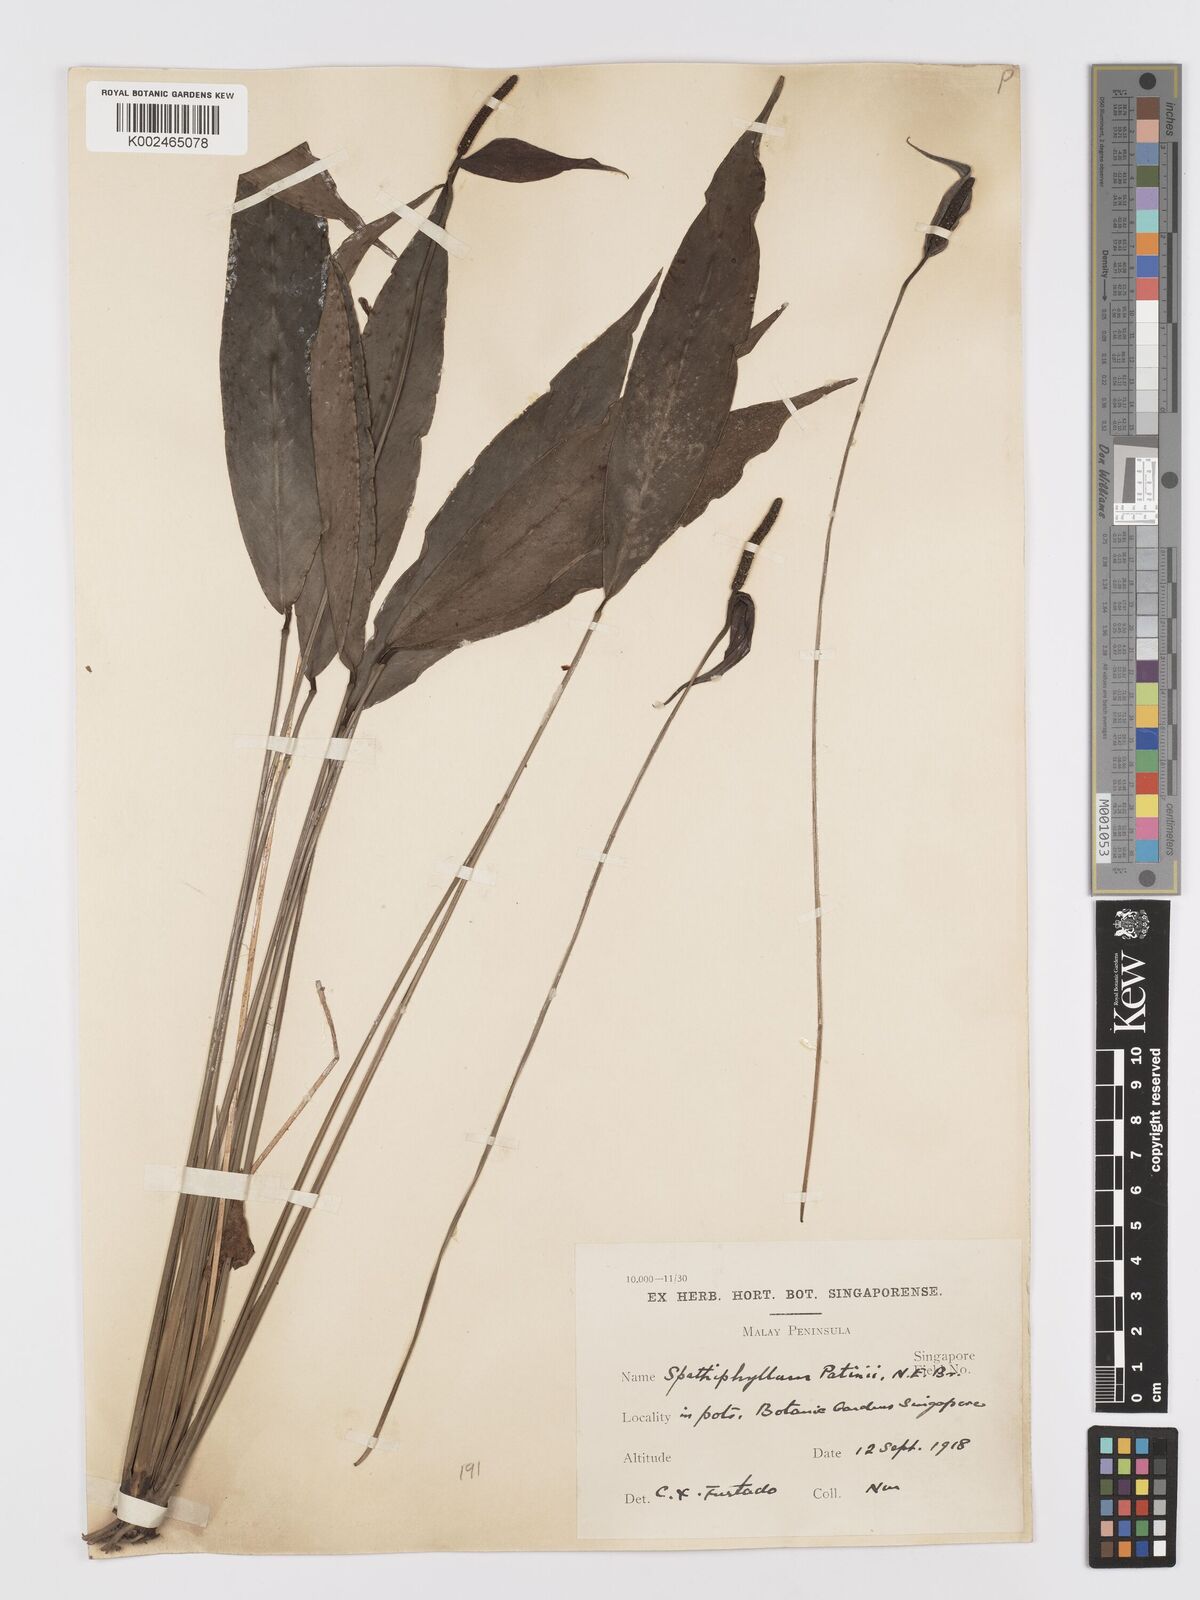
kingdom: Plantae
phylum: Tracheophyta
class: Liliopsida
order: Alismatales
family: Araceae
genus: Spathiphyllum
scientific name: Spathiphyllum patinii
